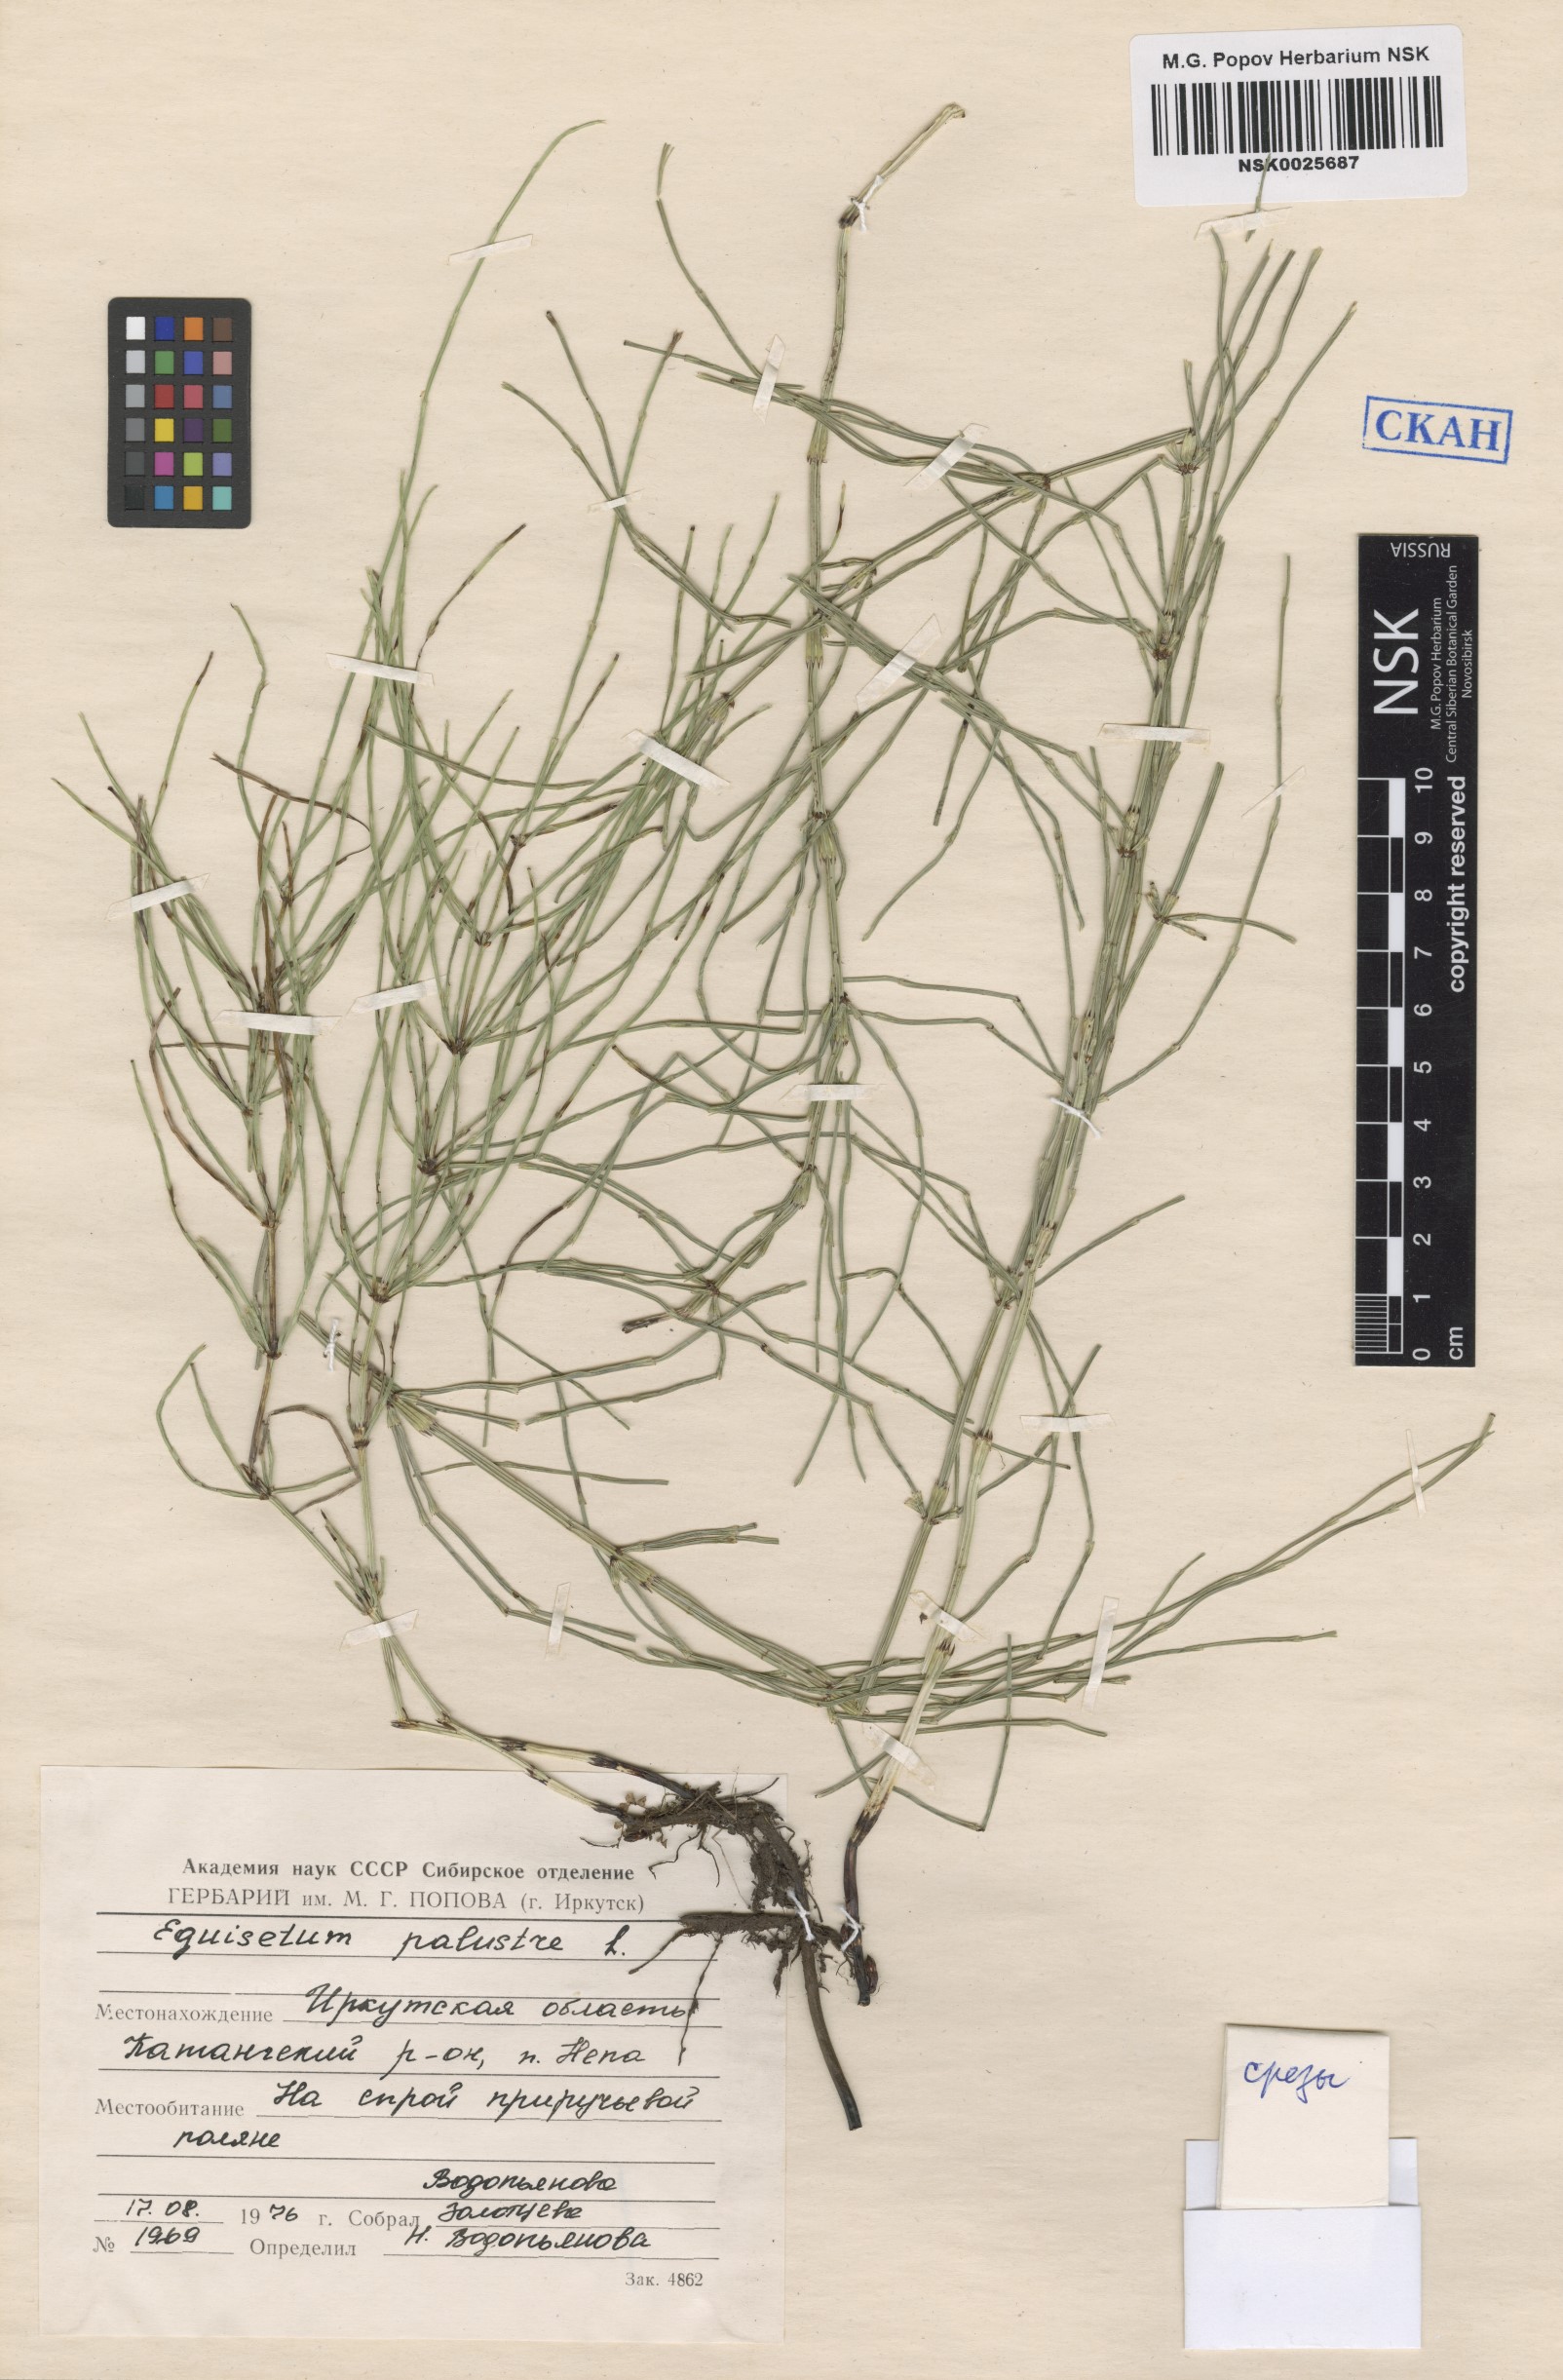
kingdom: Plantae
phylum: Tracheophyta
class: Polypodiopsida
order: Equisetales
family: Equisetaceae
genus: Equisetum
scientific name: Equisetum palustre
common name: Marsh horsetail
